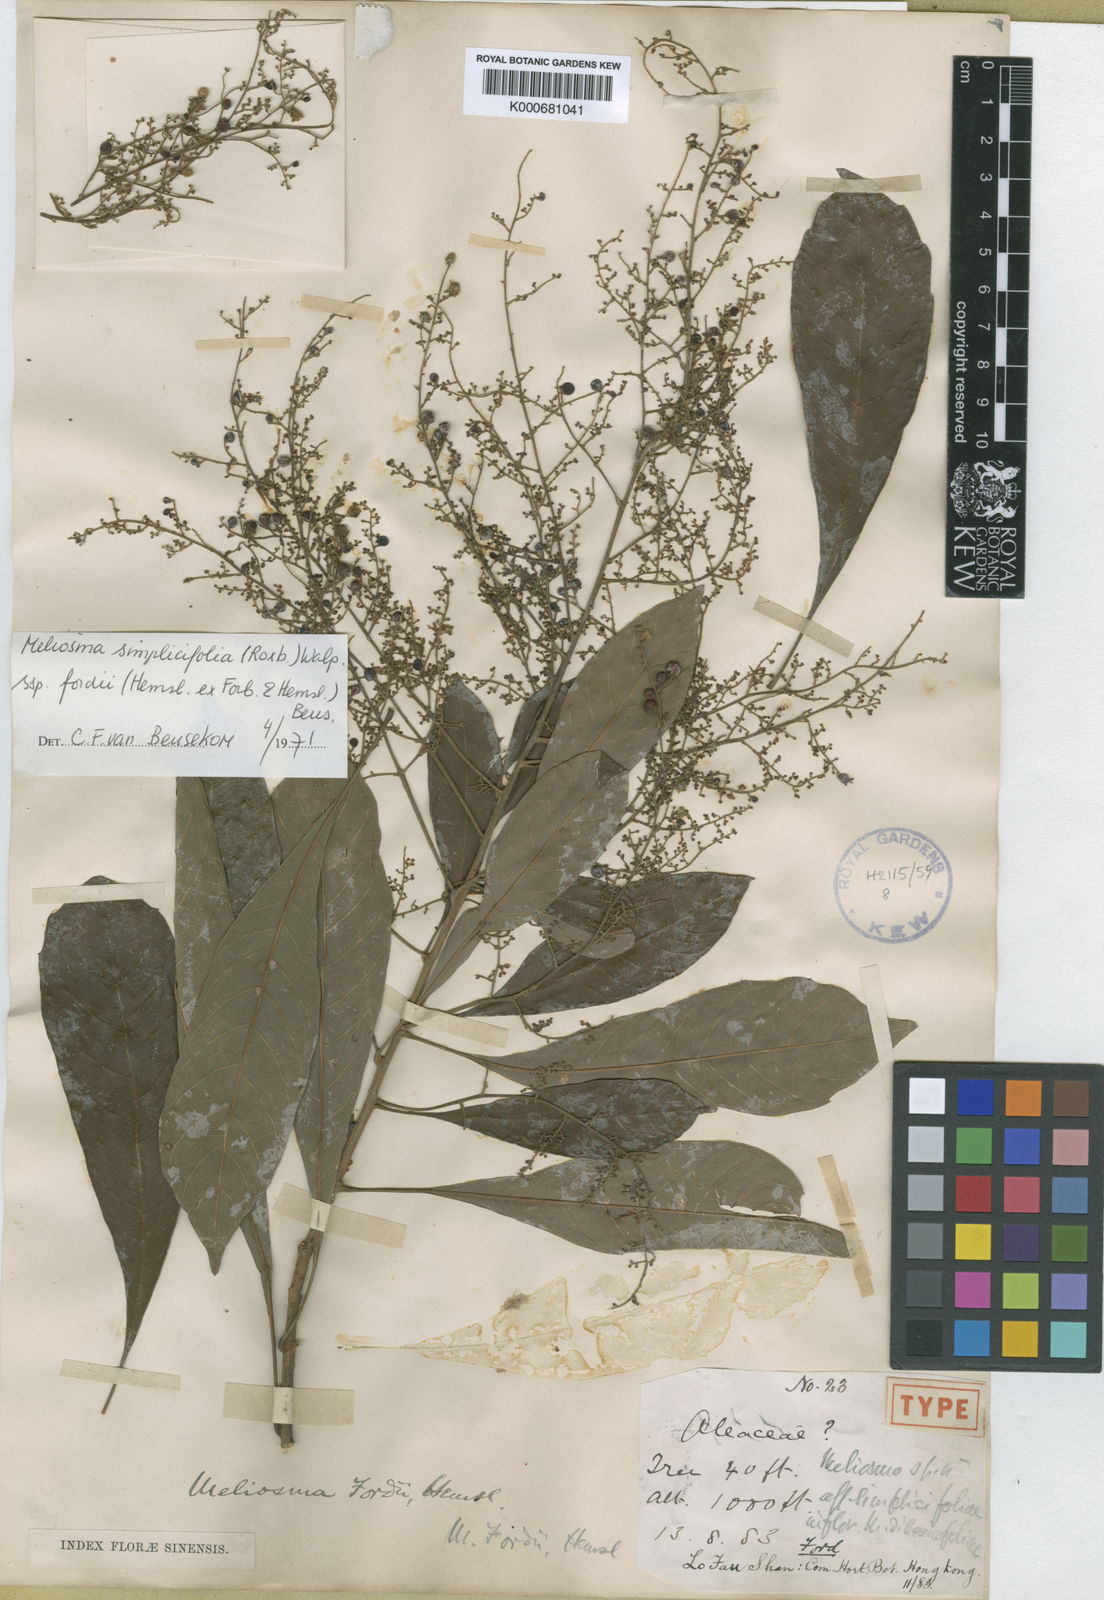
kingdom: Plantae
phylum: Tracheophyta
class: Magnoliopsida
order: Proteales
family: Sabiaceae
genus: Meliosma
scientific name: Meliosma fordii
